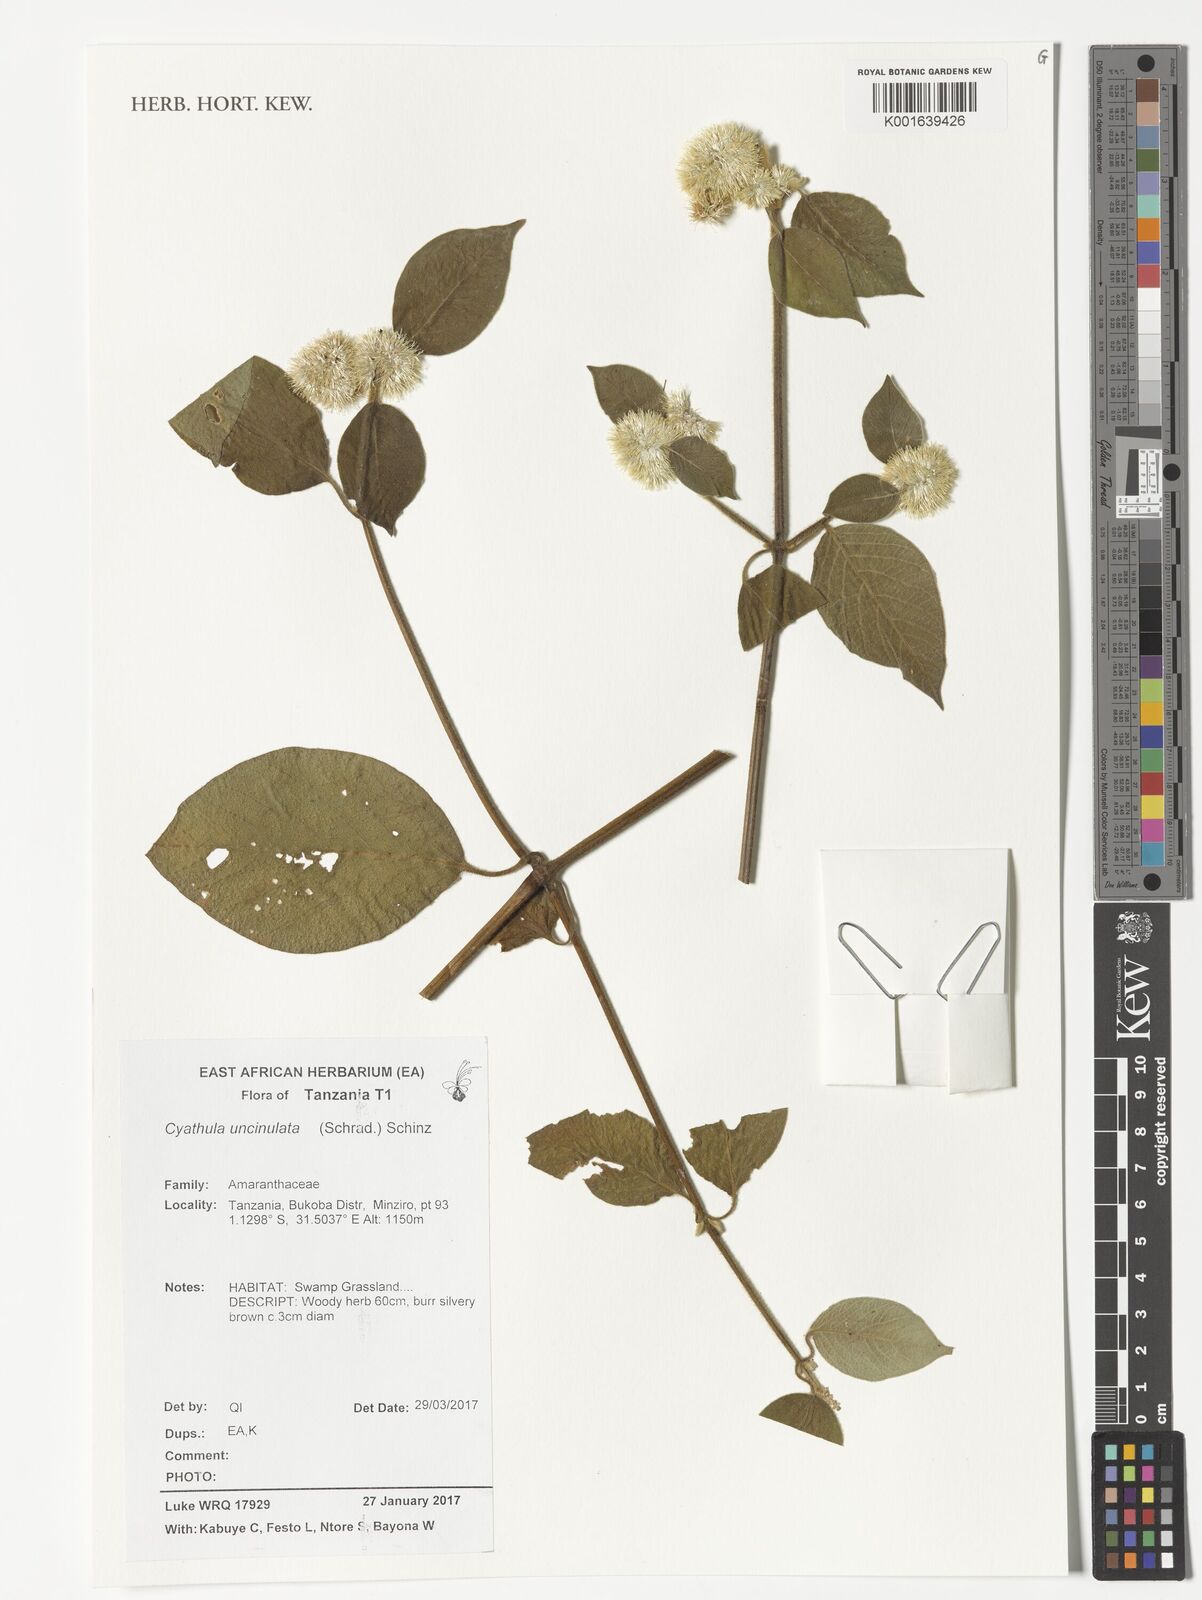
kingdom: Plantae
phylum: Tracheophyta
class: Magnoliopsida
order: Caryophyllales
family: Amaranthaceae
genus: Cyathula
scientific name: Cyathula uncinulata
